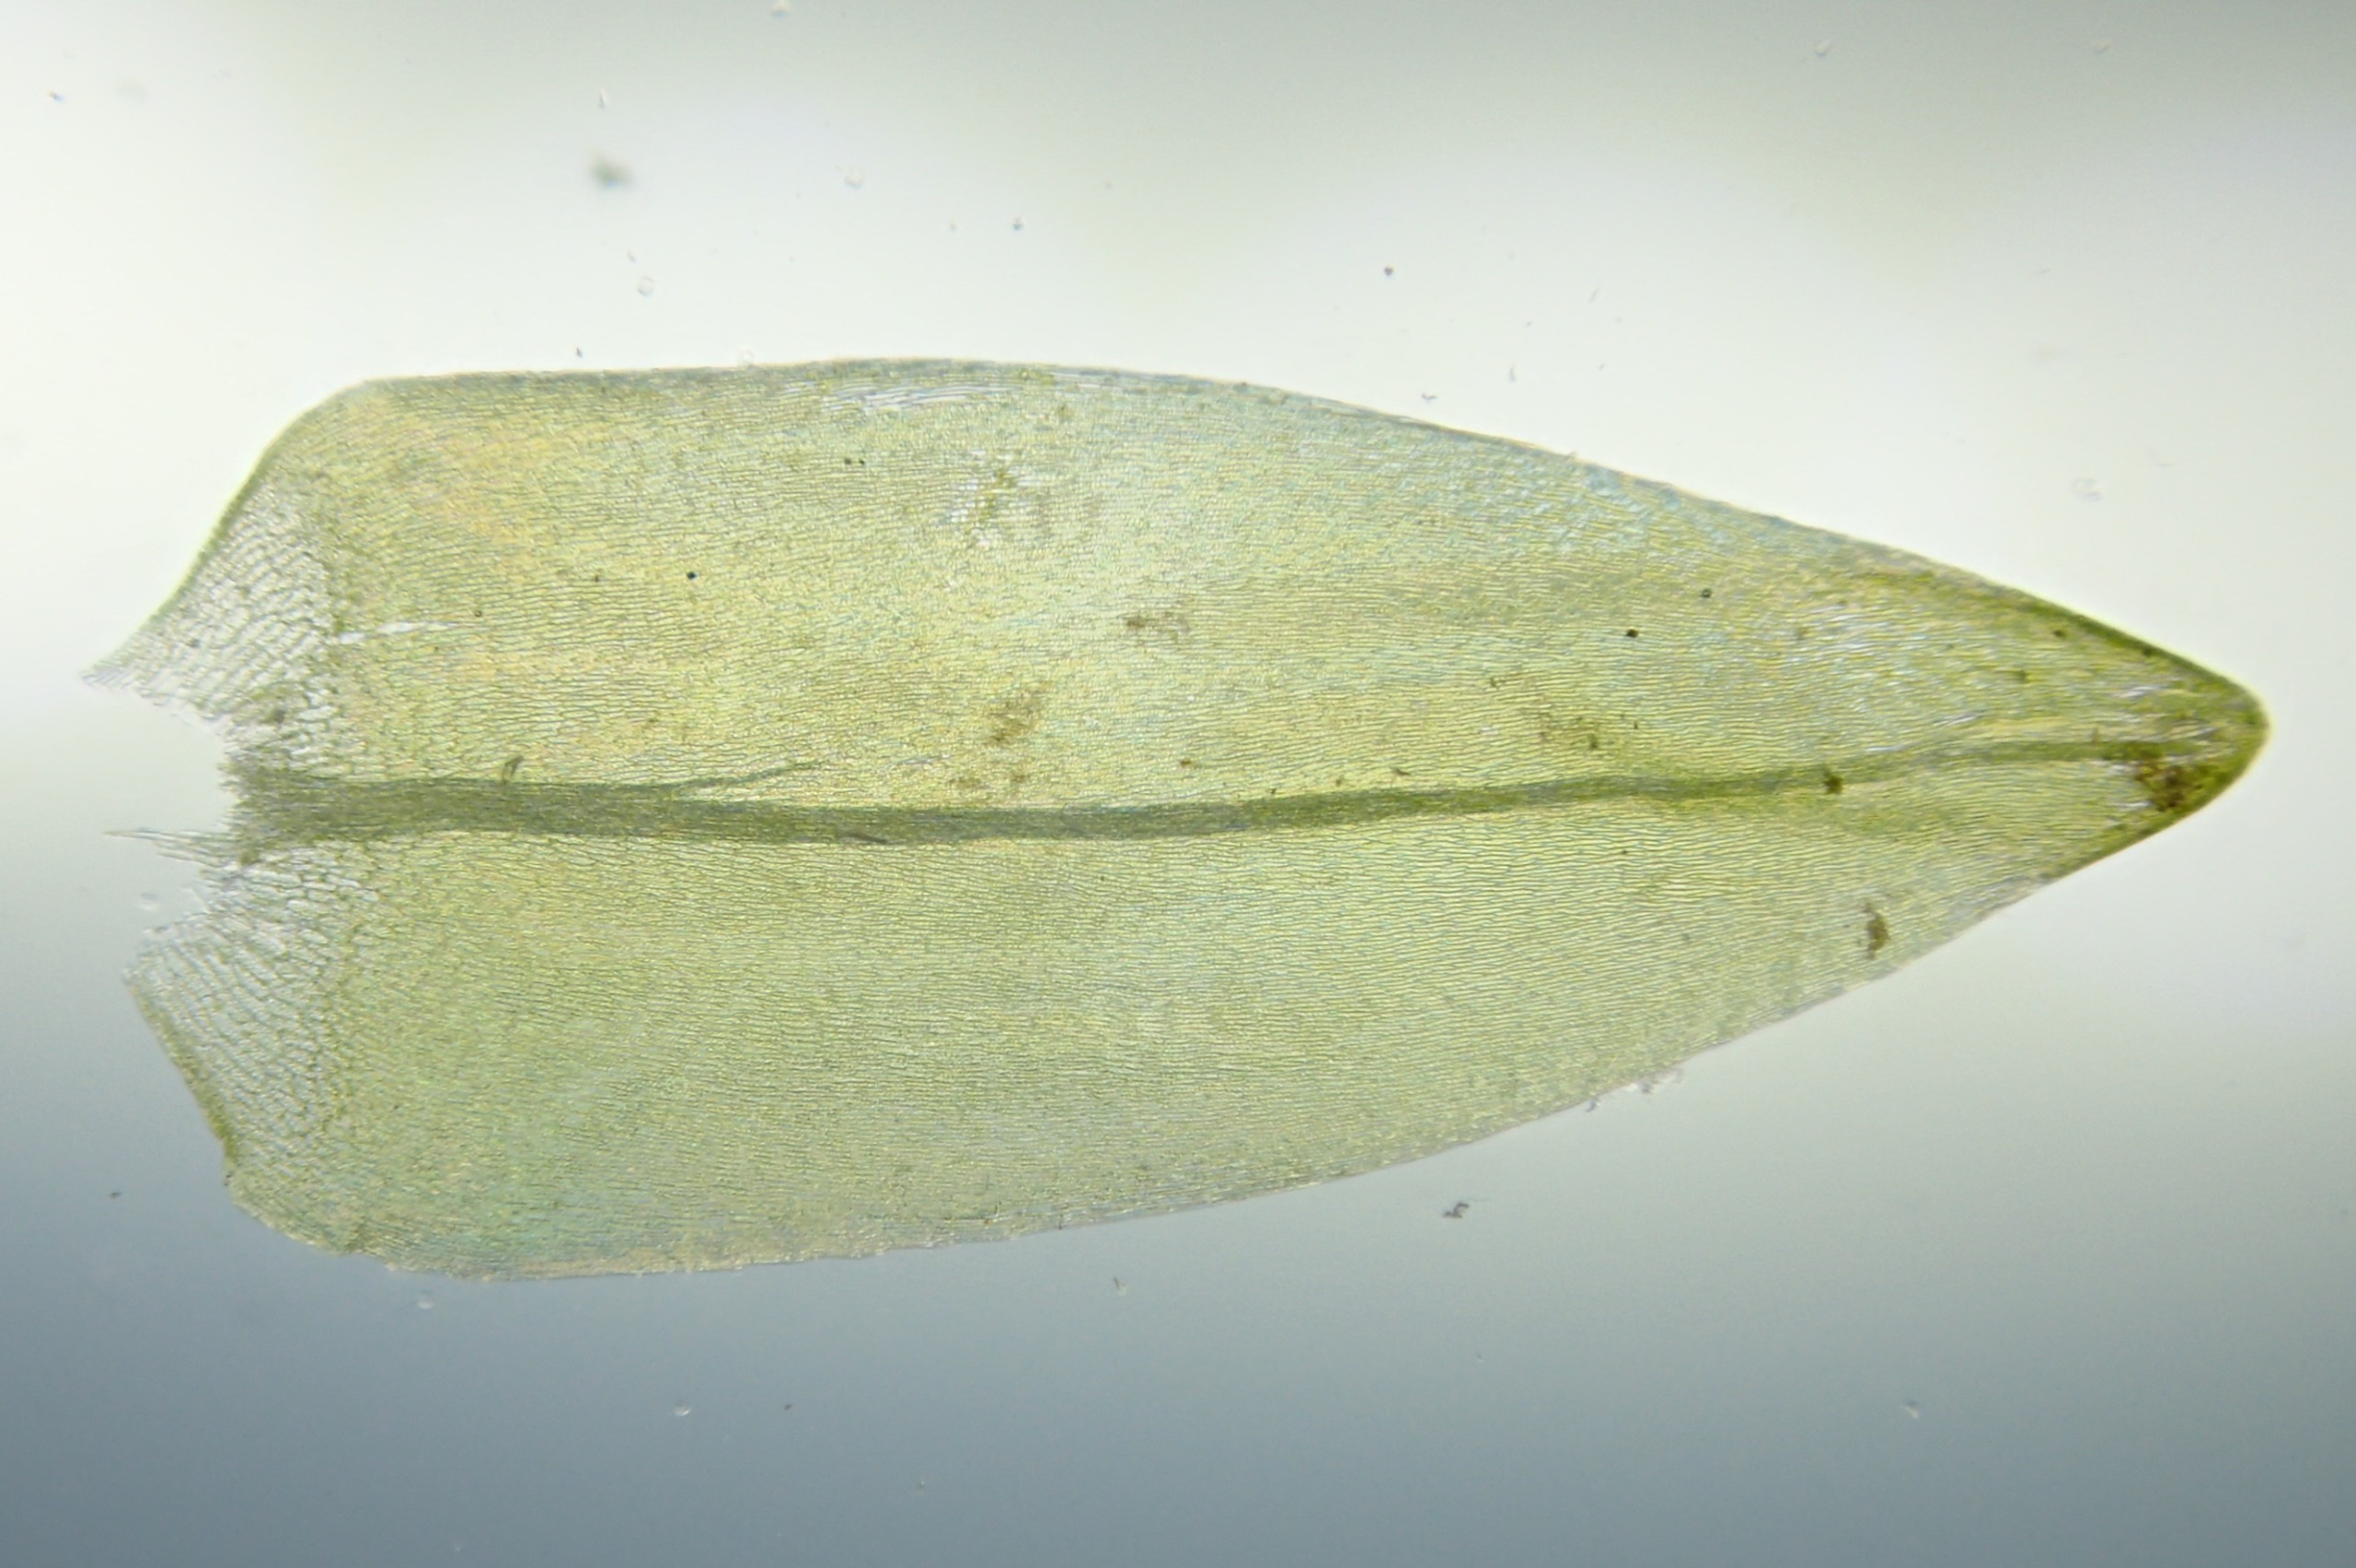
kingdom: Plantae
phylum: Bryophyta
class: Bryopsida
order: Hypnales
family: Calliergonaceae
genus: Calliergon
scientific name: Calliergon cordifolium
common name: Almindelig skebladsmos
